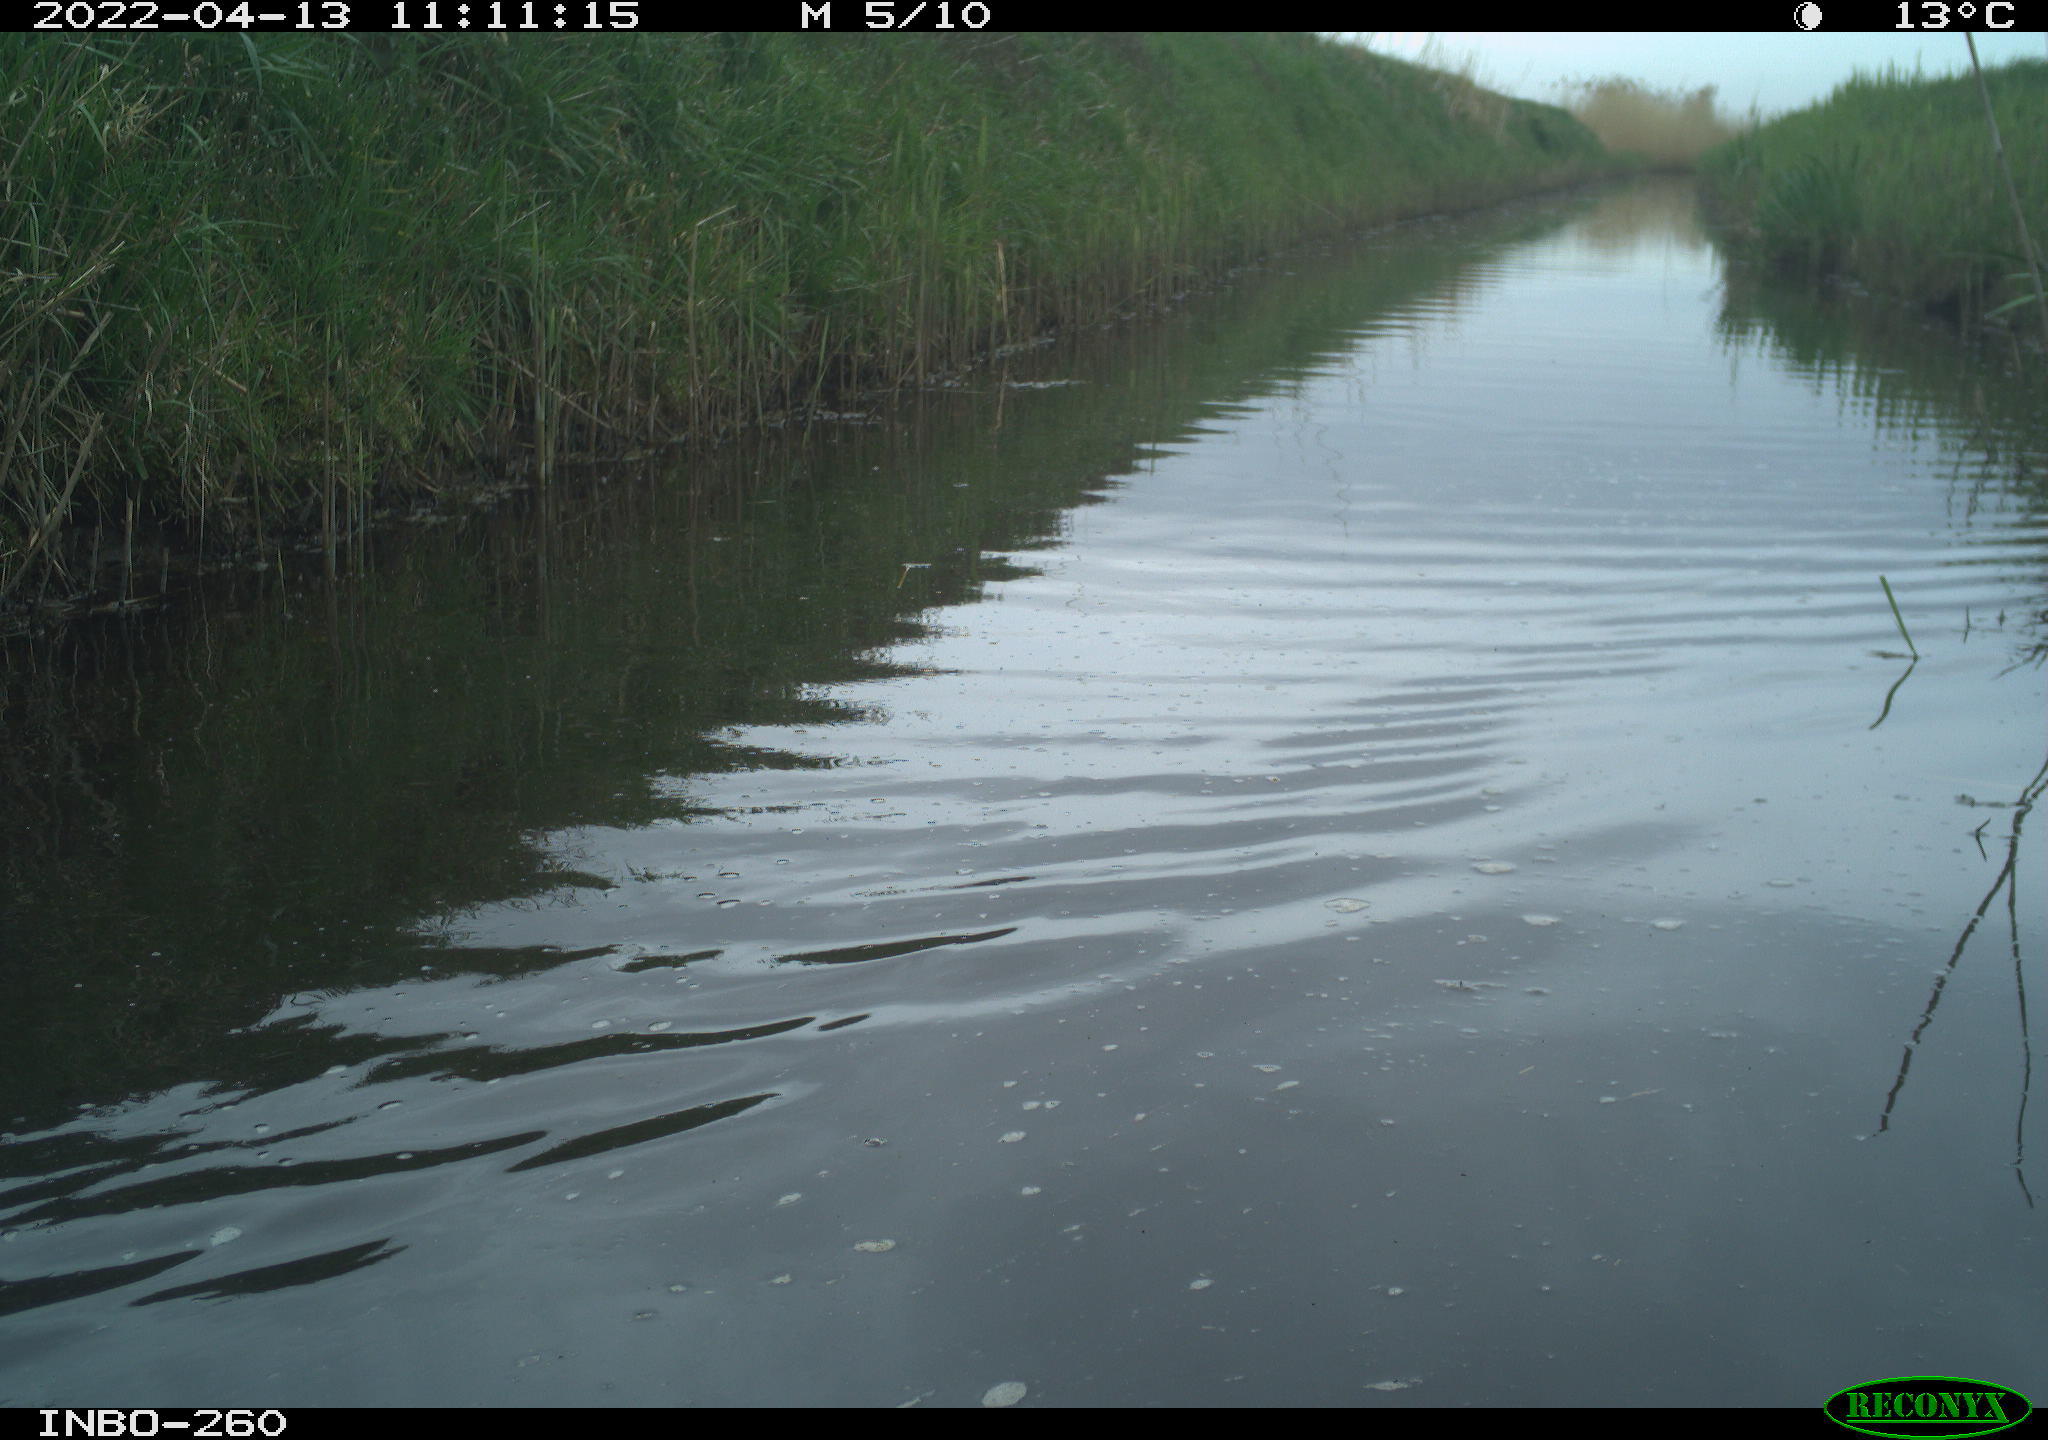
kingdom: Animalia
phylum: Chordata
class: Aves
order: Gruiformes
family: Rallidae
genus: Fulica
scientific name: Fulica atra
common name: Eurasian coot
